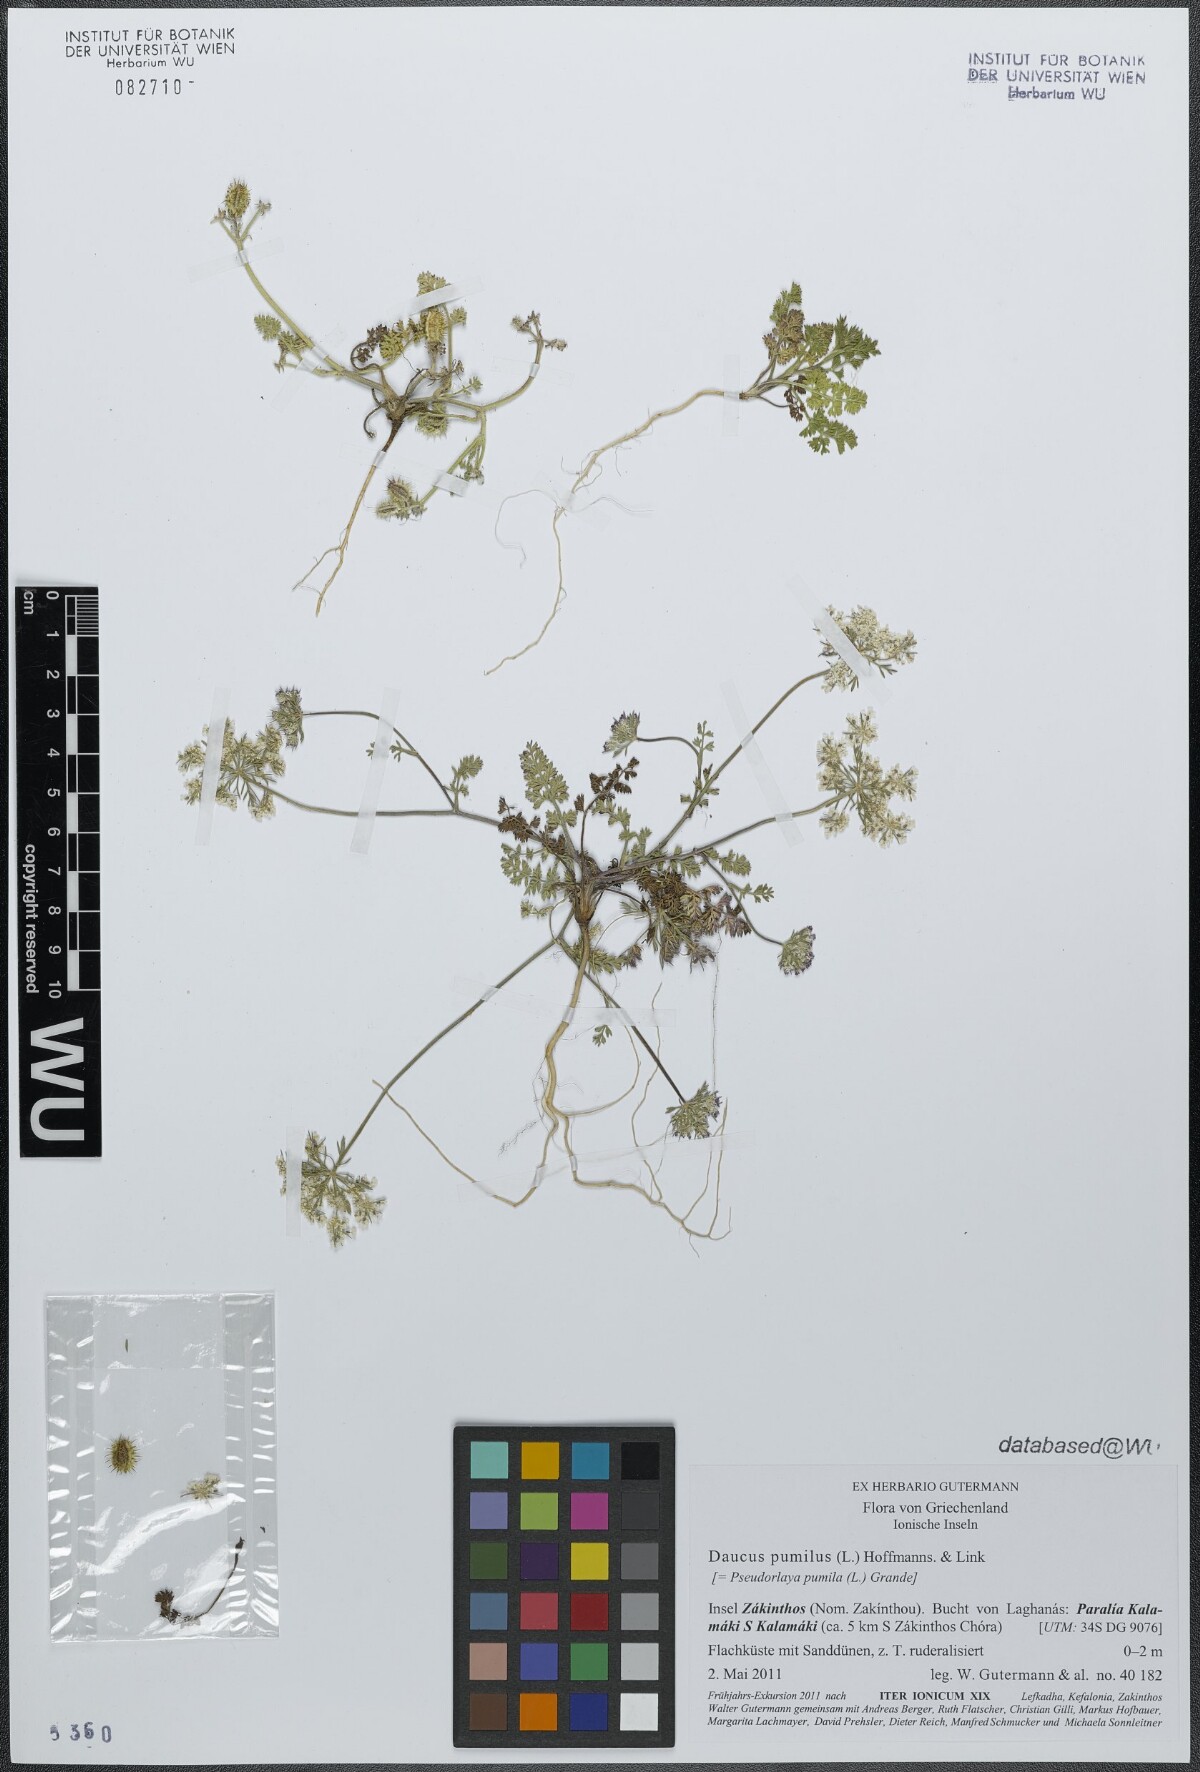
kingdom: Plantae
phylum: Tracheophyta
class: Magnoliopsida
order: Apiales
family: Apiaceae
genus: Daucus
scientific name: Daucus pumilus
